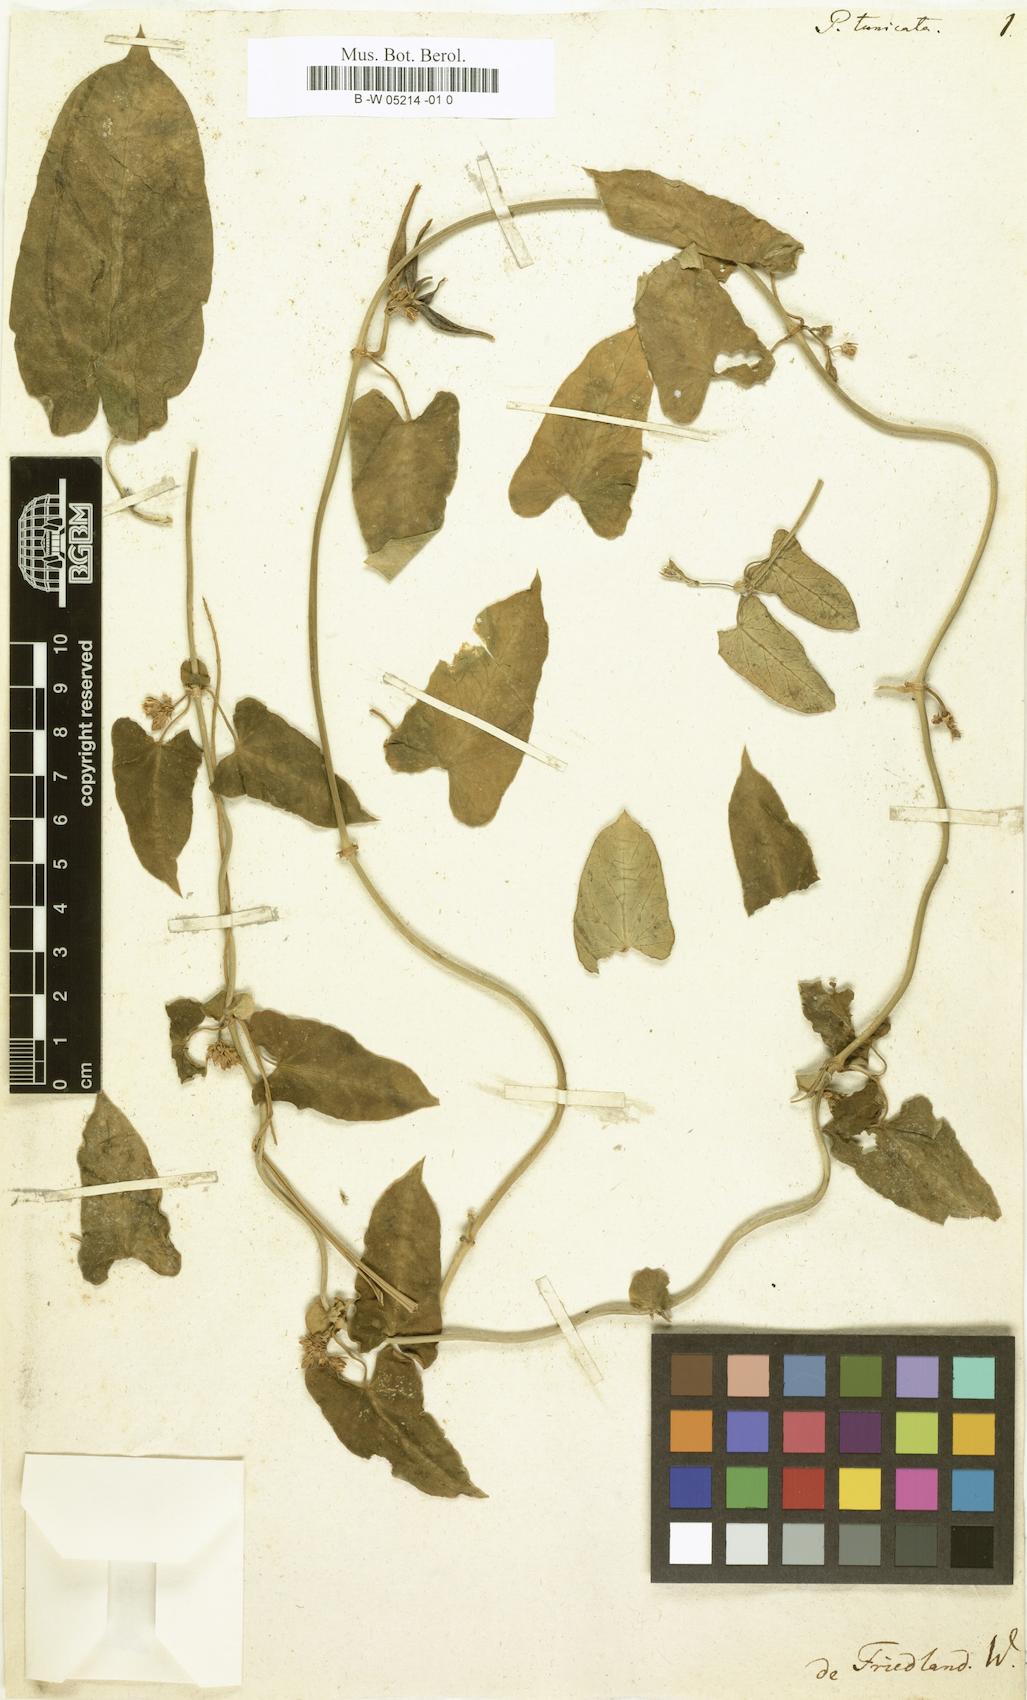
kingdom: Plantae
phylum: Tracheophyta
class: Magnoliopsida
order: Gentianales
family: Apocynaceae
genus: Cynanchum
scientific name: Cynanchum tunicatum
